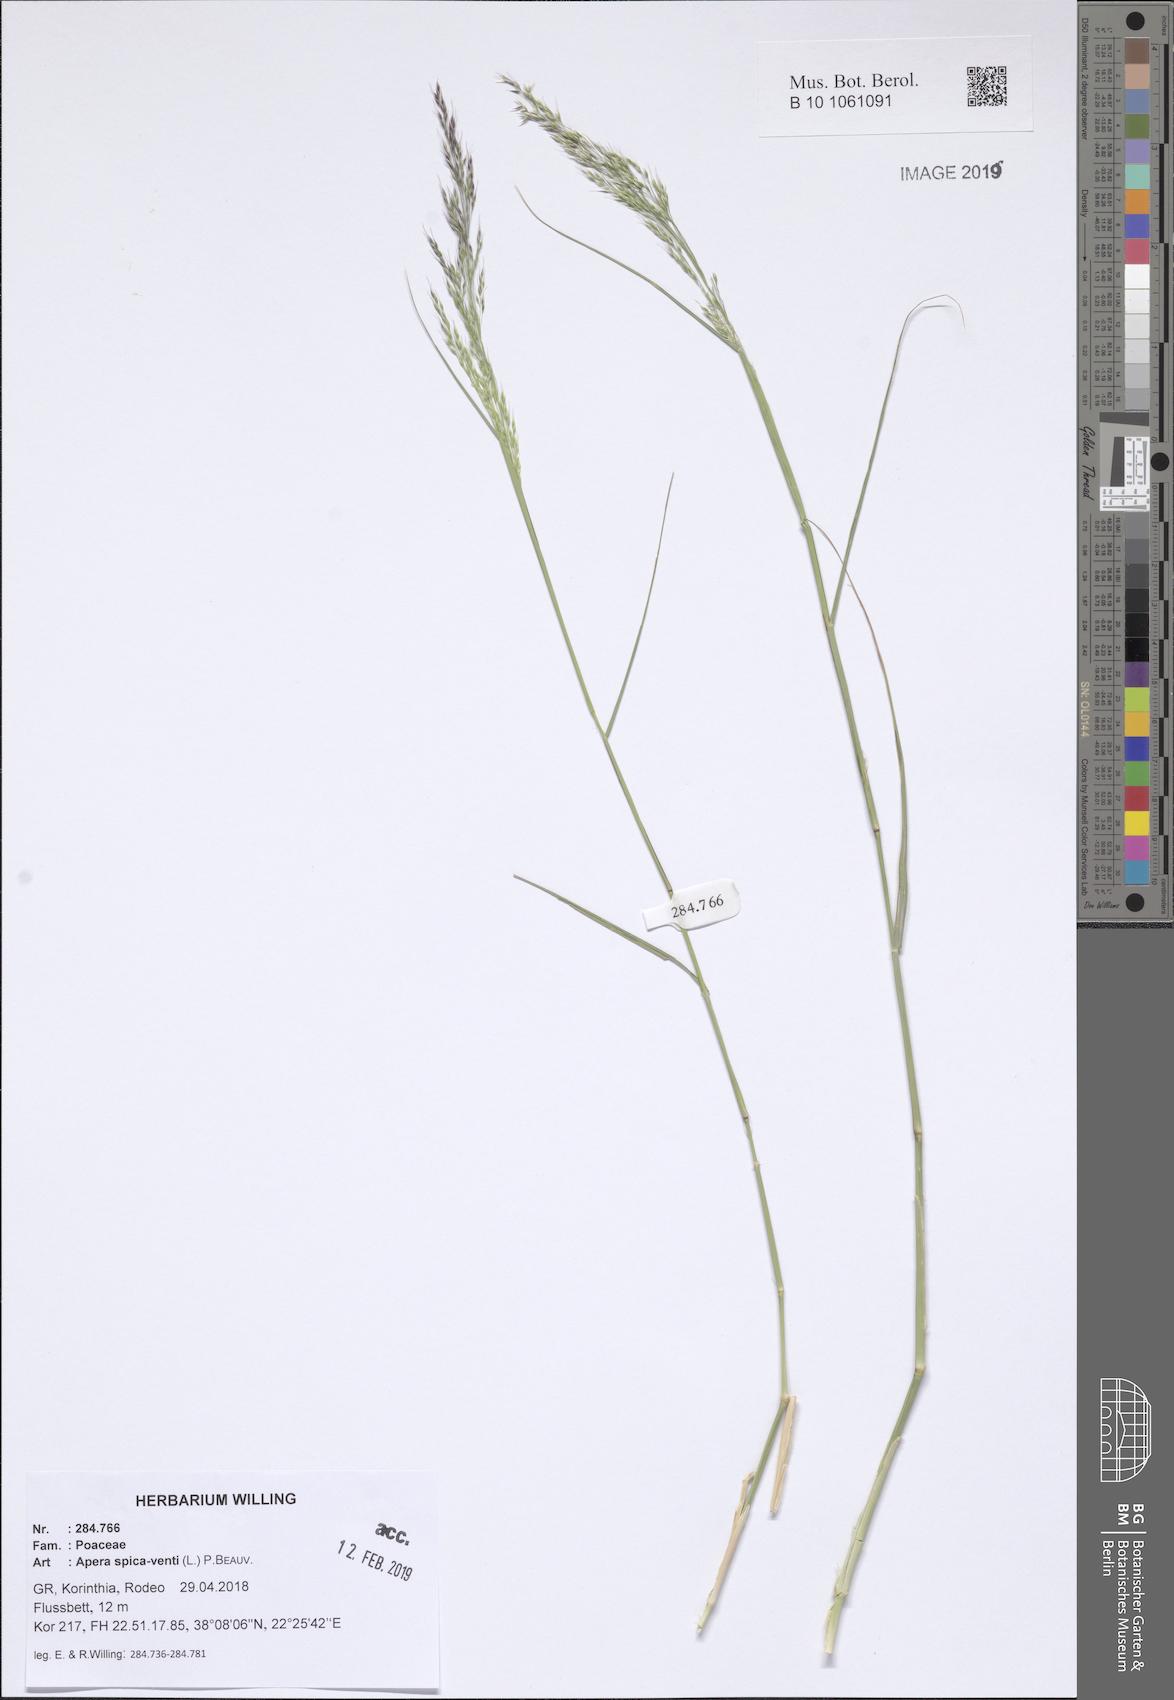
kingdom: Plantae
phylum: Tracheophyta
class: Liliopsida
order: Poales
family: Poaceae
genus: Apera
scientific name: Apera spica-venti
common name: Loose silky-bent
